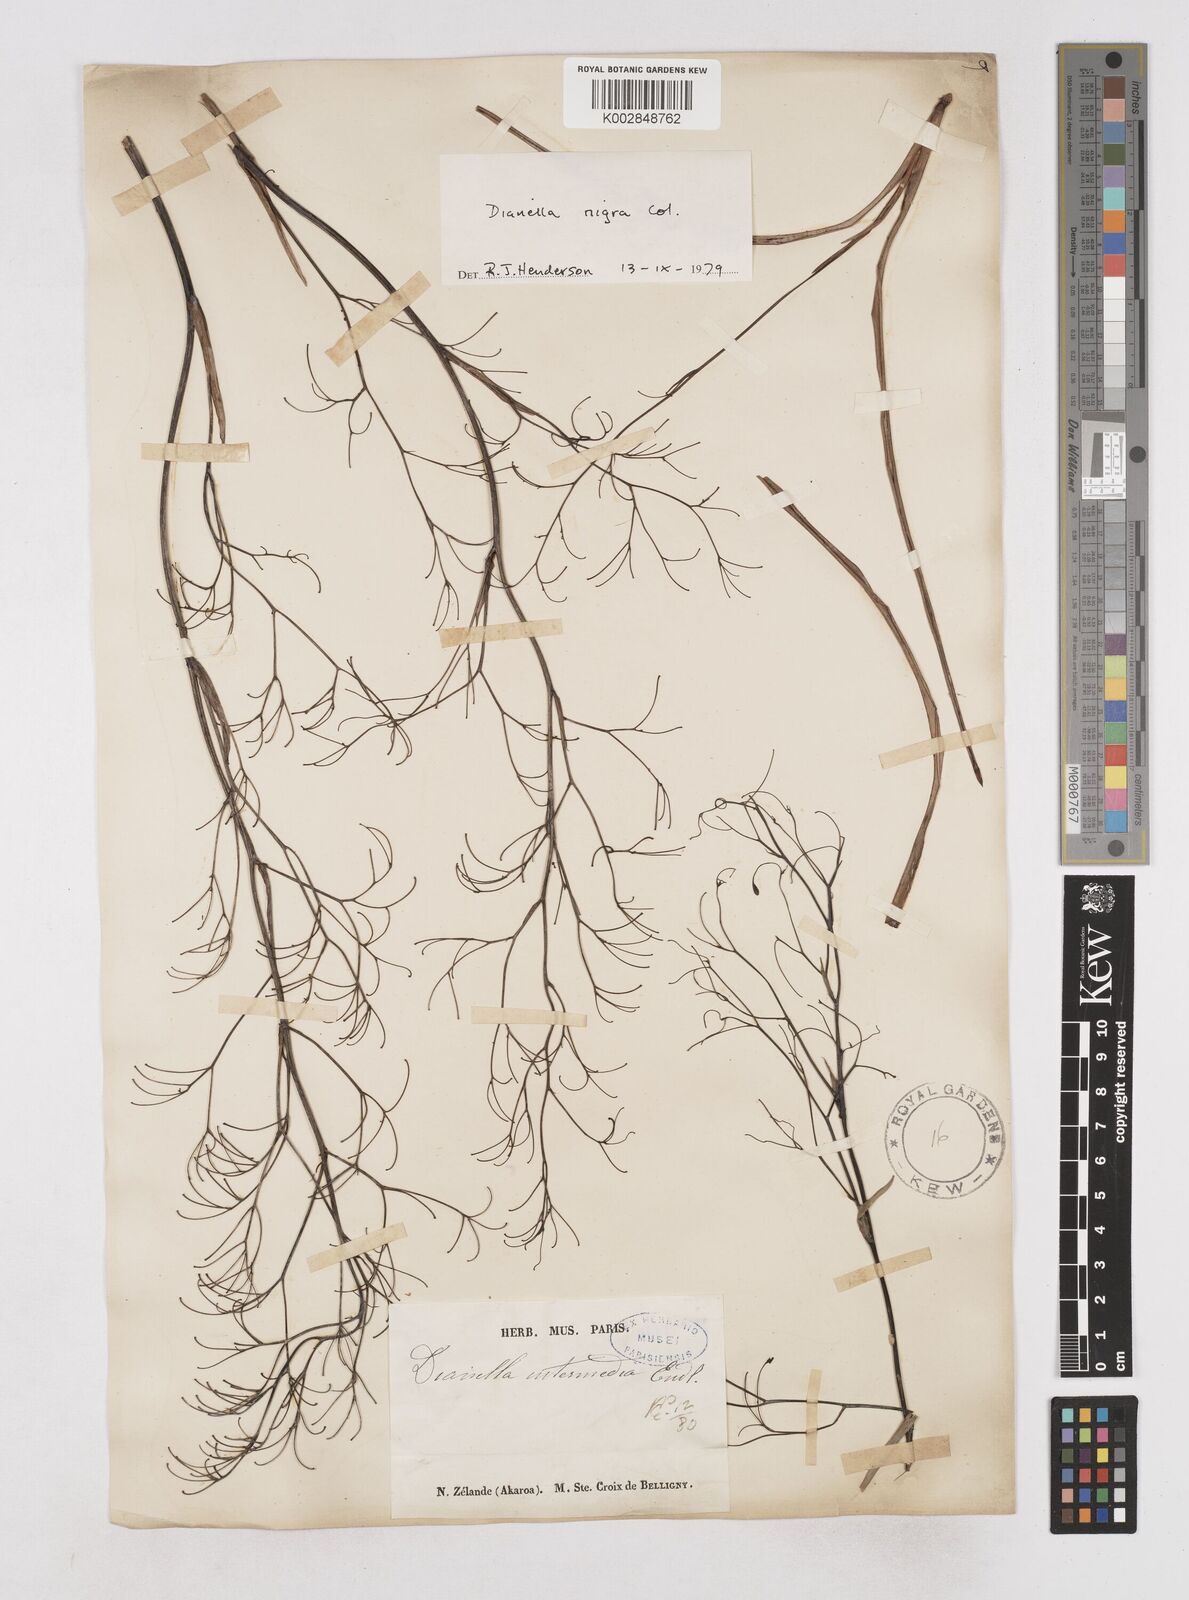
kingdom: Plantae
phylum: Tracheophyta
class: Liliopsida
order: Asparagales
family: Asphodelaceae
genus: Dianella
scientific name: Dianella nigra
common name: New zealand-blueberry
